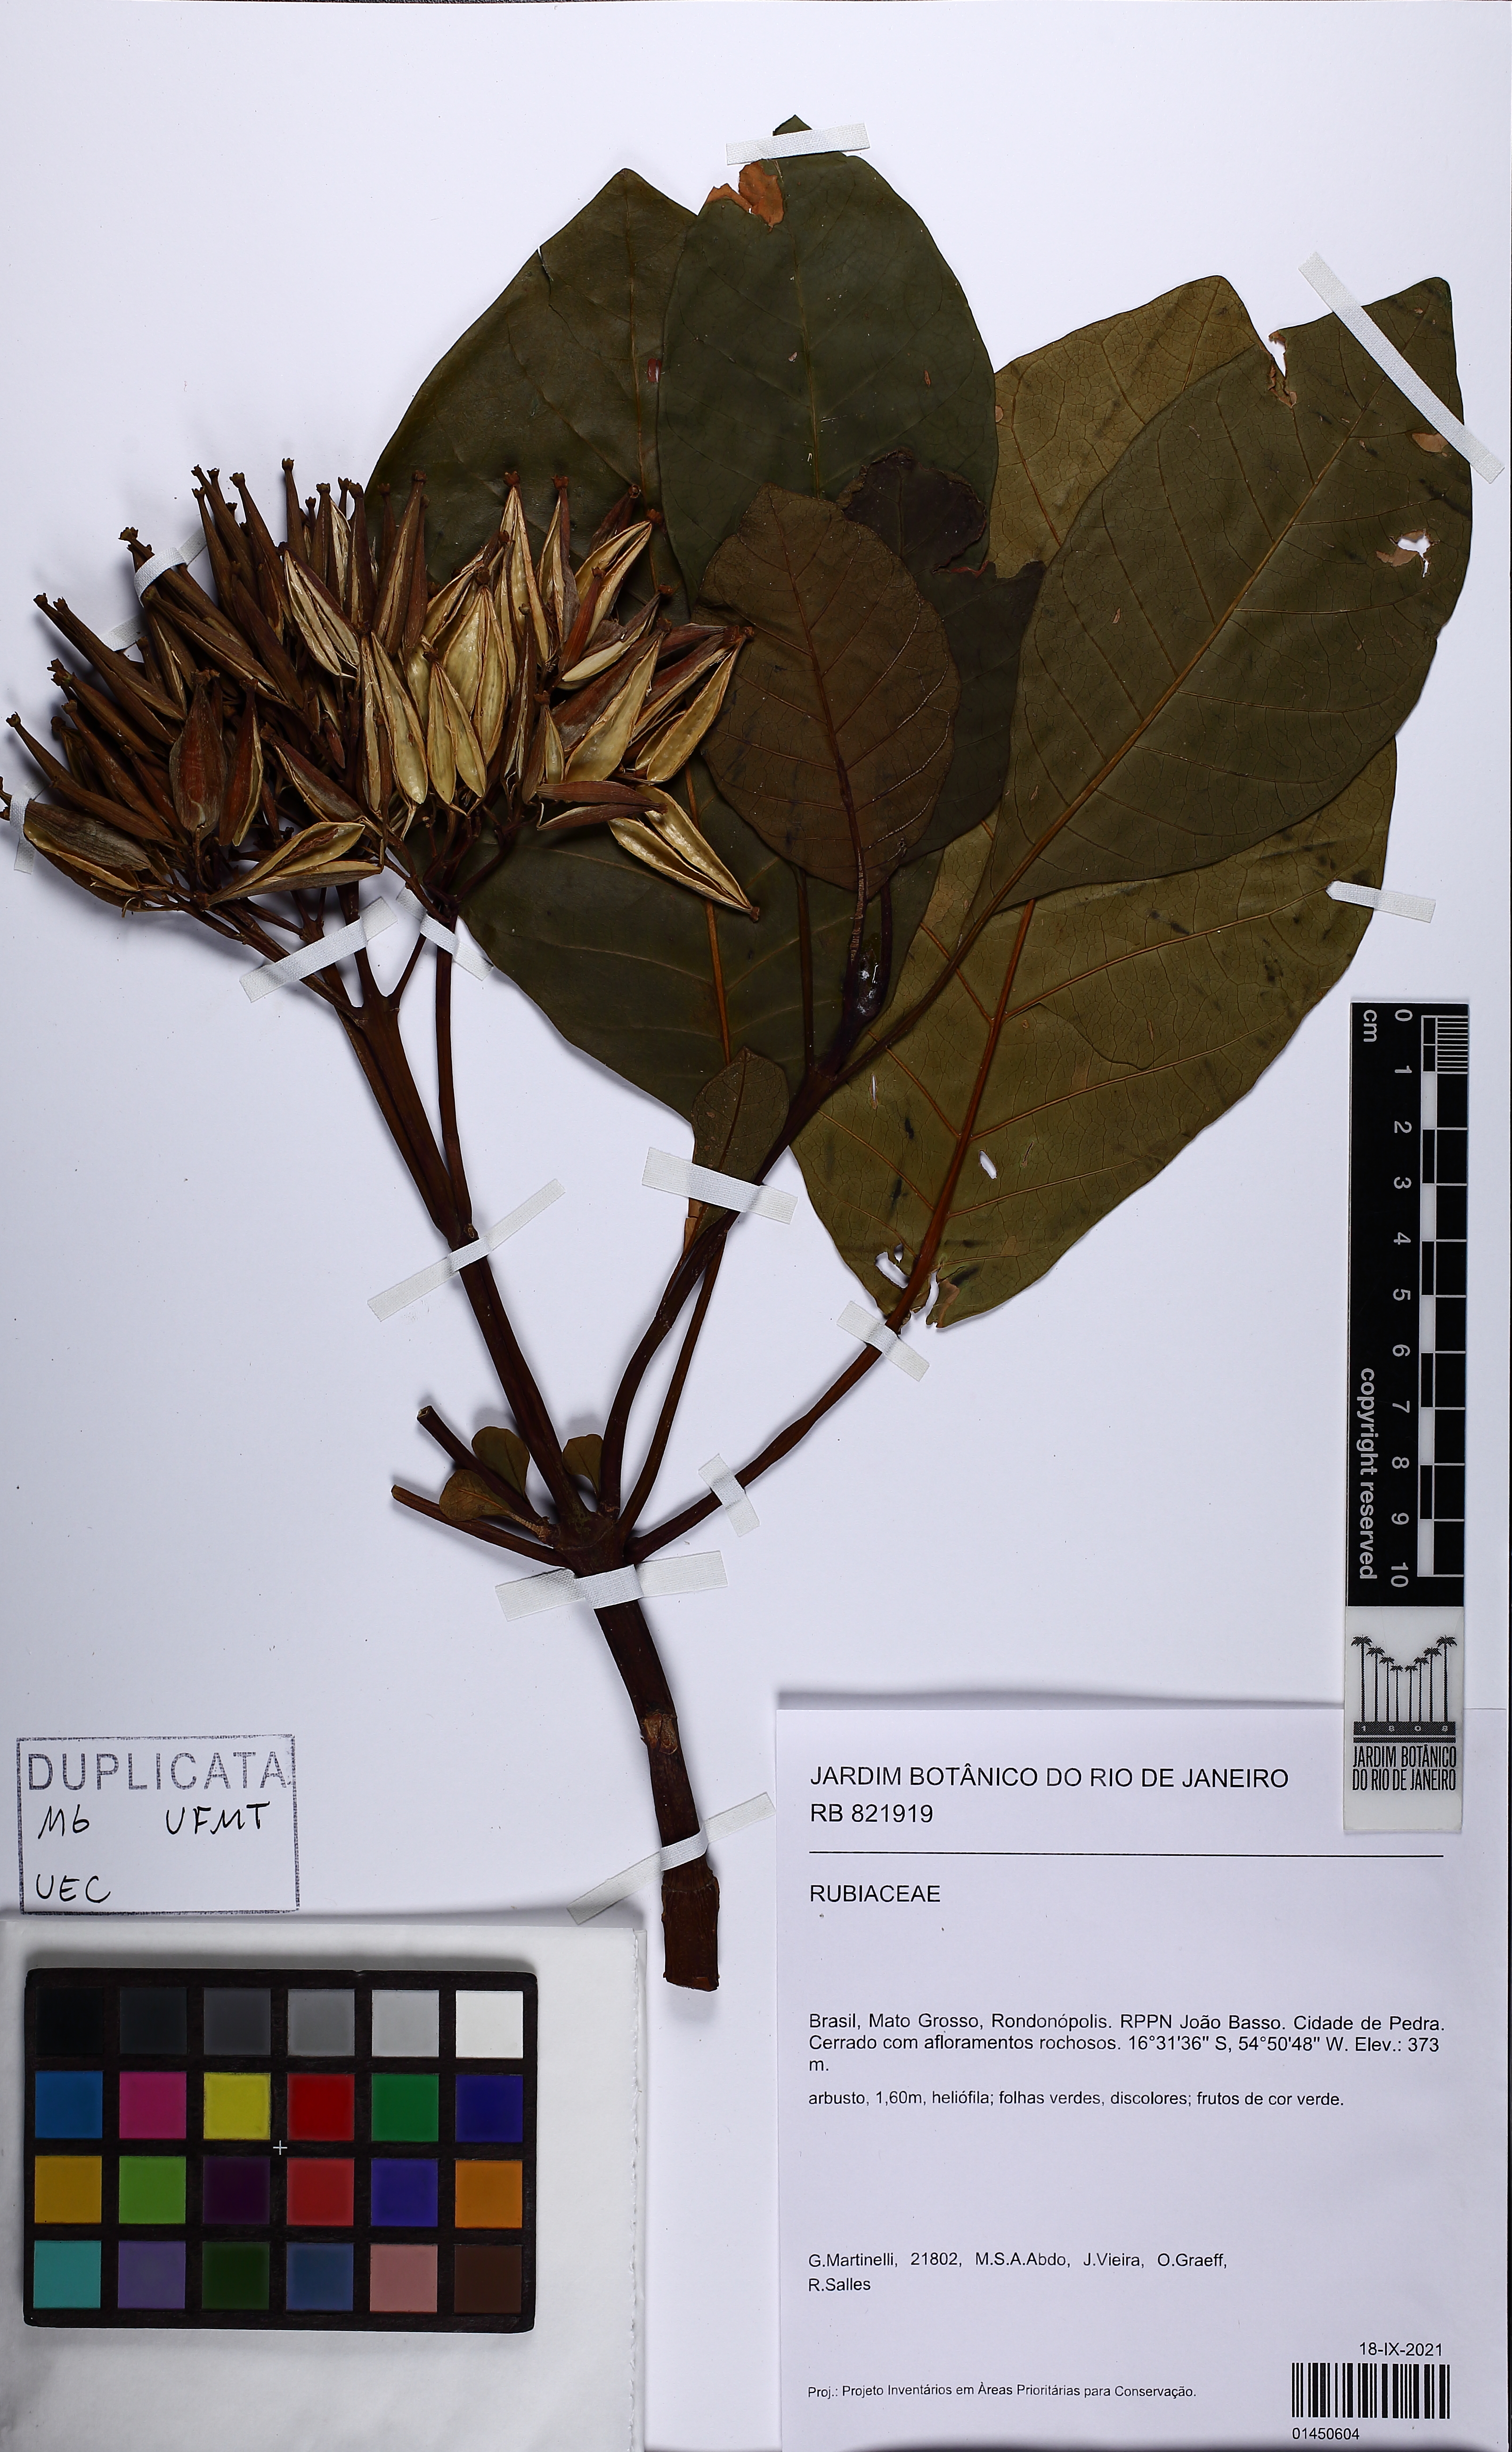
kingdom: Plantae
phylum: Tracheophyta
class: Magnoliopsida
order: Gentianales
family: Rubiaceae
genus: Ladenbergia
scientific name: Ladenbergia cujabensis
